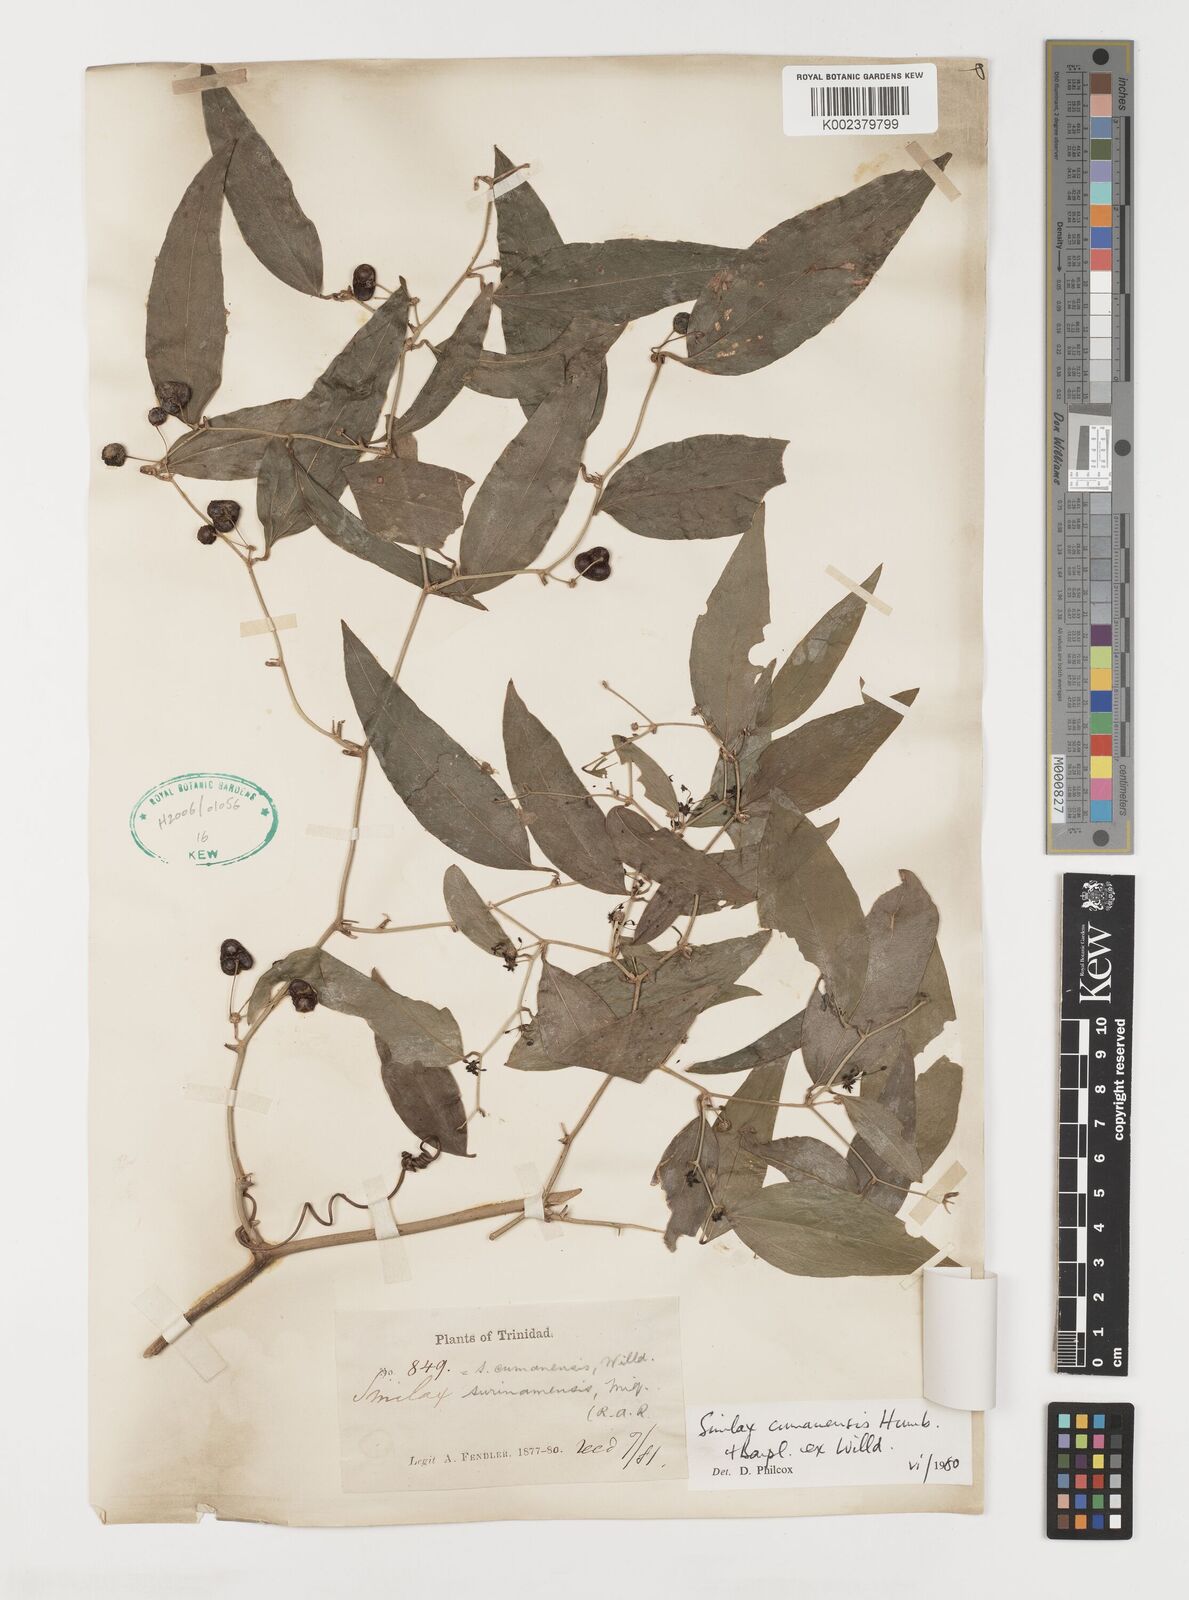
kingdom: Plantae
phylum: Tracheophyta
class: Liliopsida
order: Liliales
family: Smilacaceae
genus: Smilax
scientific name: Smilax oblongata
